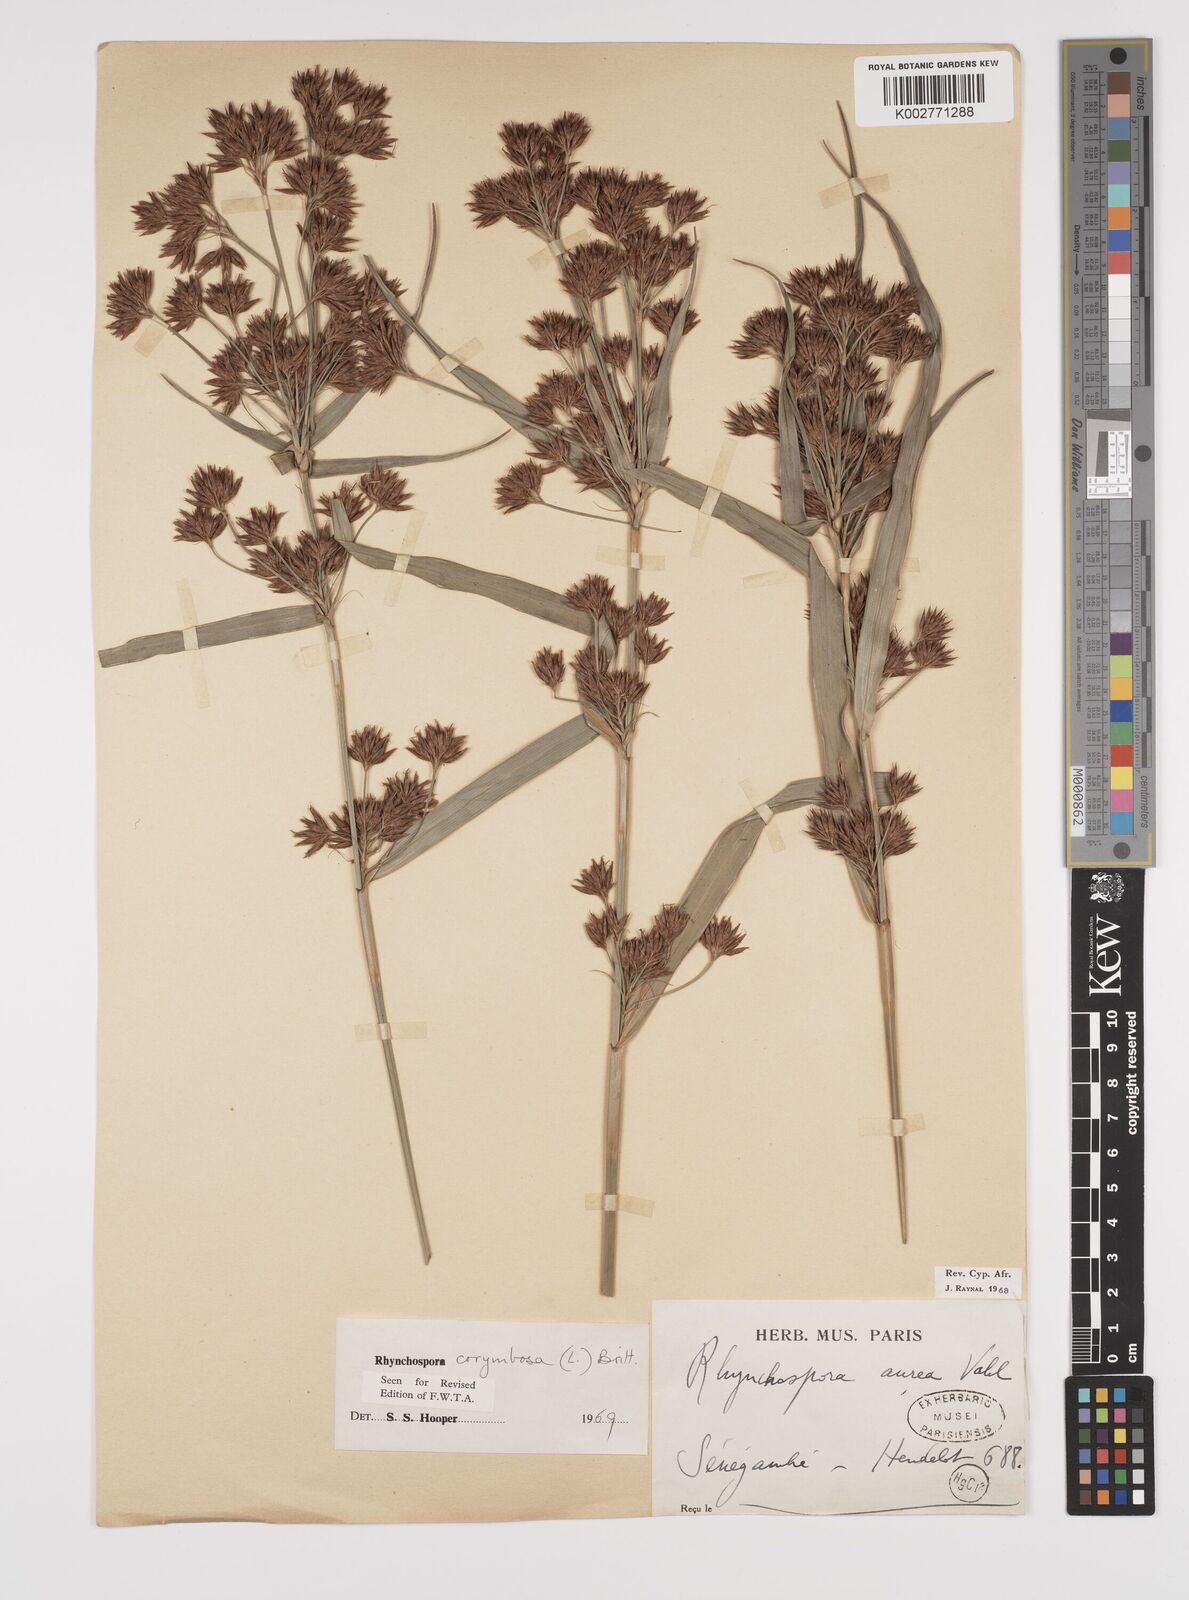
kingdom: Plantae
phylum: Tracheophyta
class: Liliopsida
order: Poales
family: Cyperaceae
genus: Rhynchospora
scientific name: Rhynchospora corymbosa
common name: Golden beak sedge
